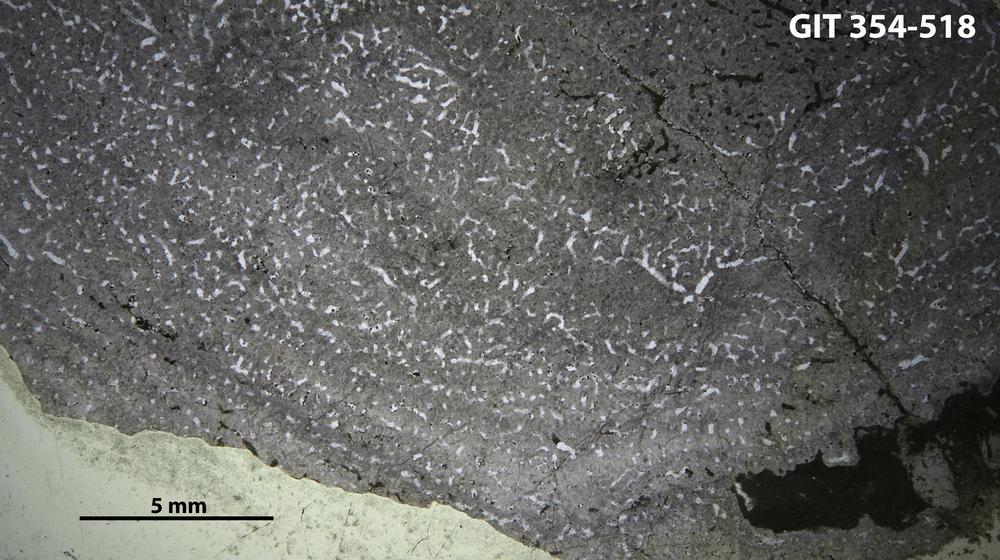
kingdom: Animalia
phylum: Porifera
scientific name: Porifera
